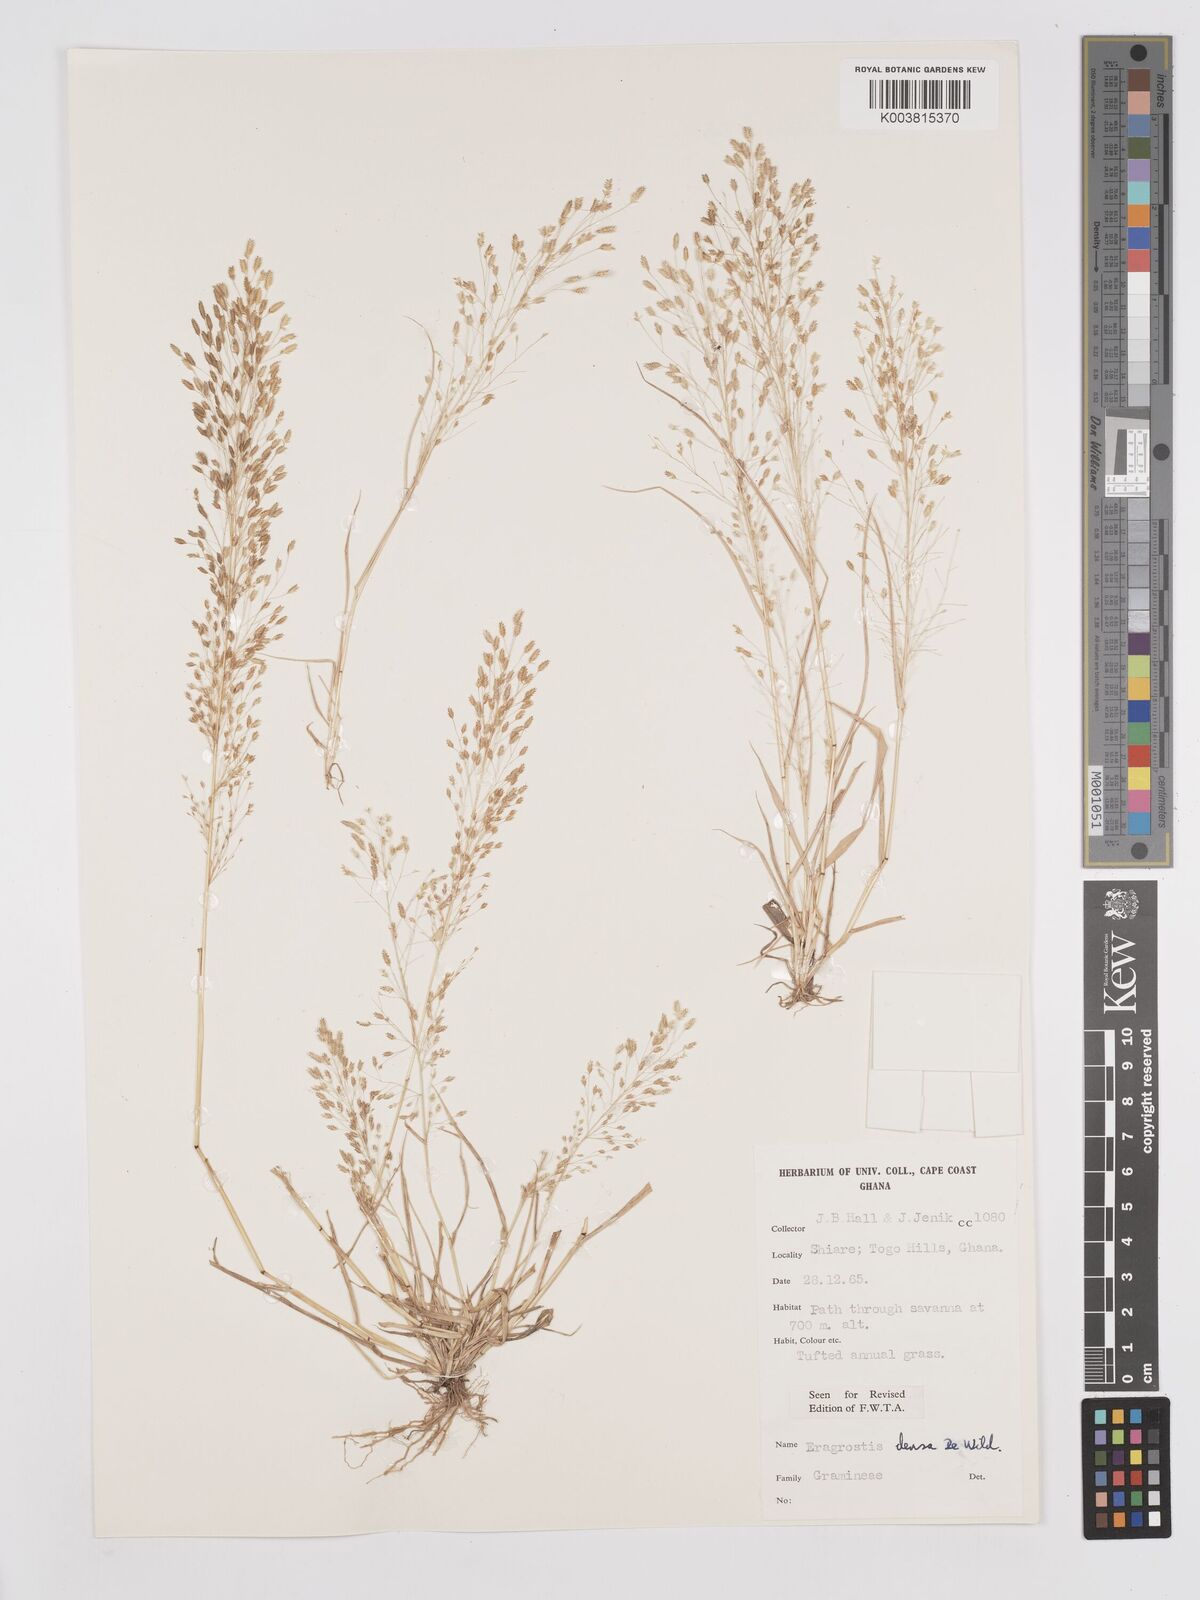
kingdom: Plantae
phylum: Tracheophyta
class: Liliopsida
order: Poales
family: Poaceae
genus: Eragrostis
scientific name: Eragrostis welwitschii
